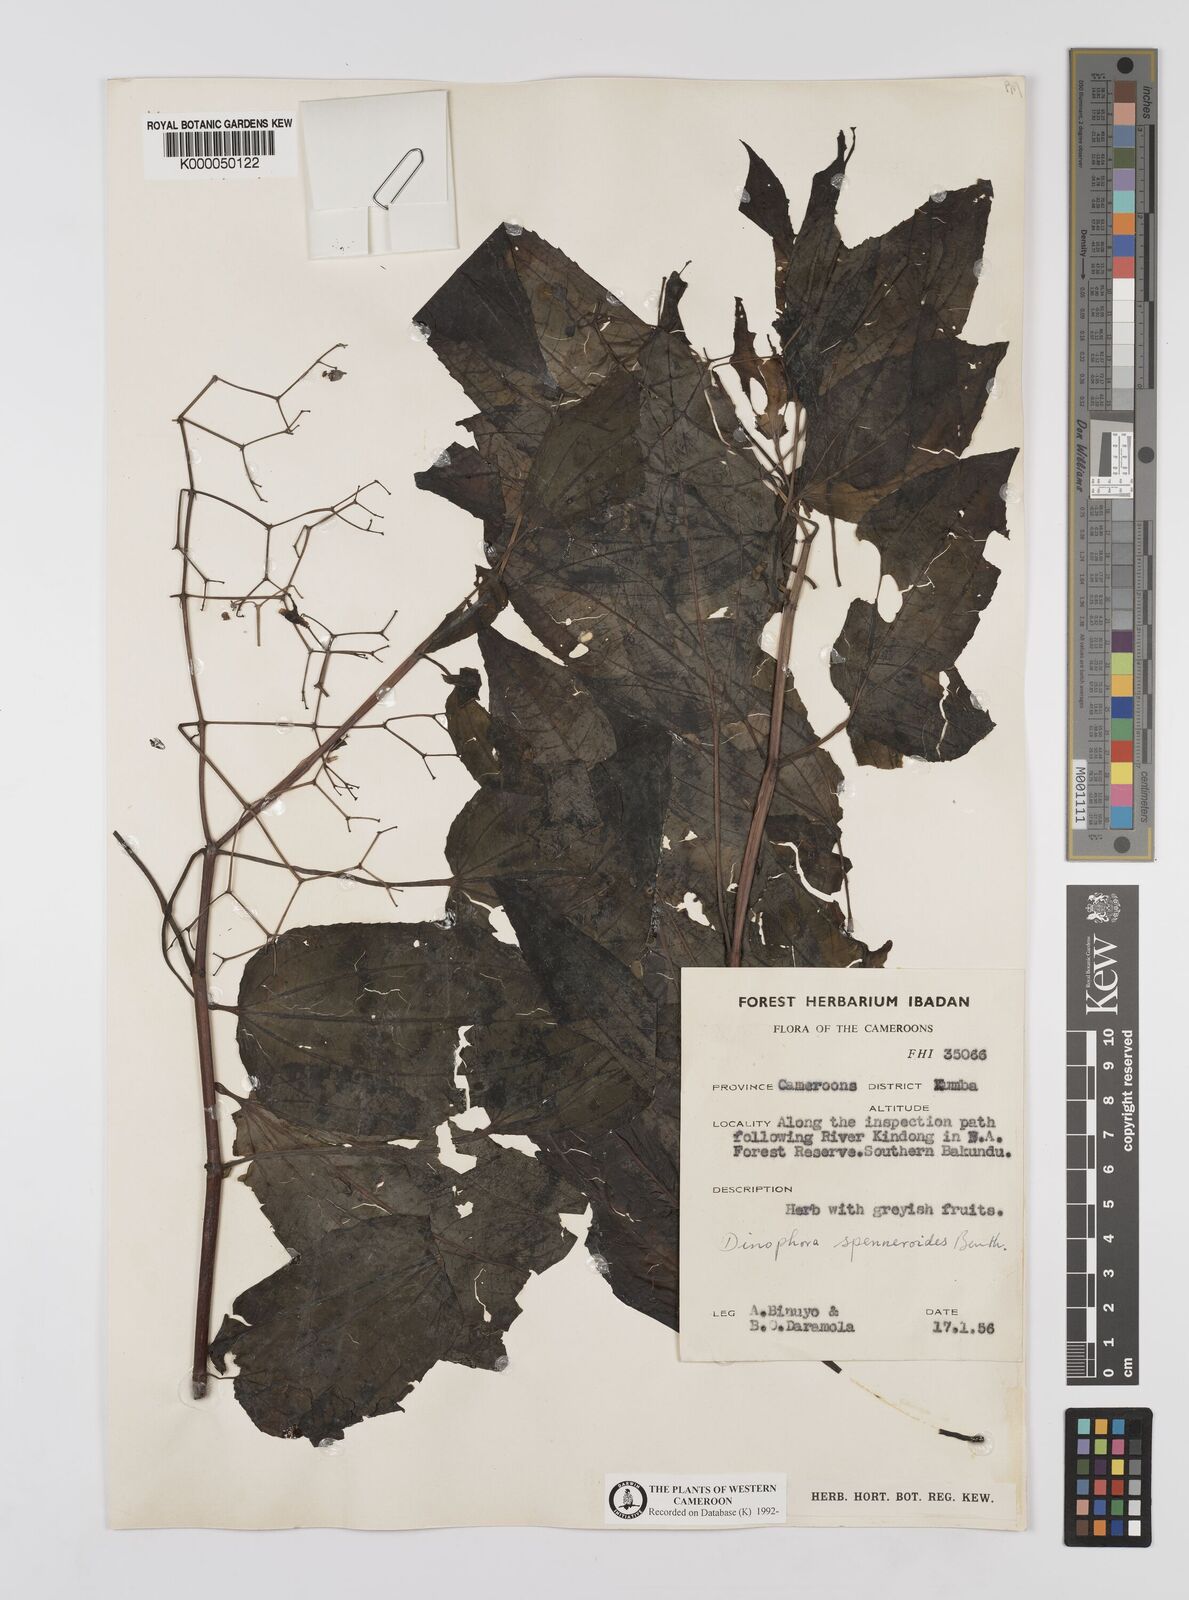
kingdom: Plantae
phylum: Tracheophyta
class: Magnoliopsida
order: Myrtales
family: Melastomataceae
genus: Dinophora
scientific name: Dinophora spenneroides
